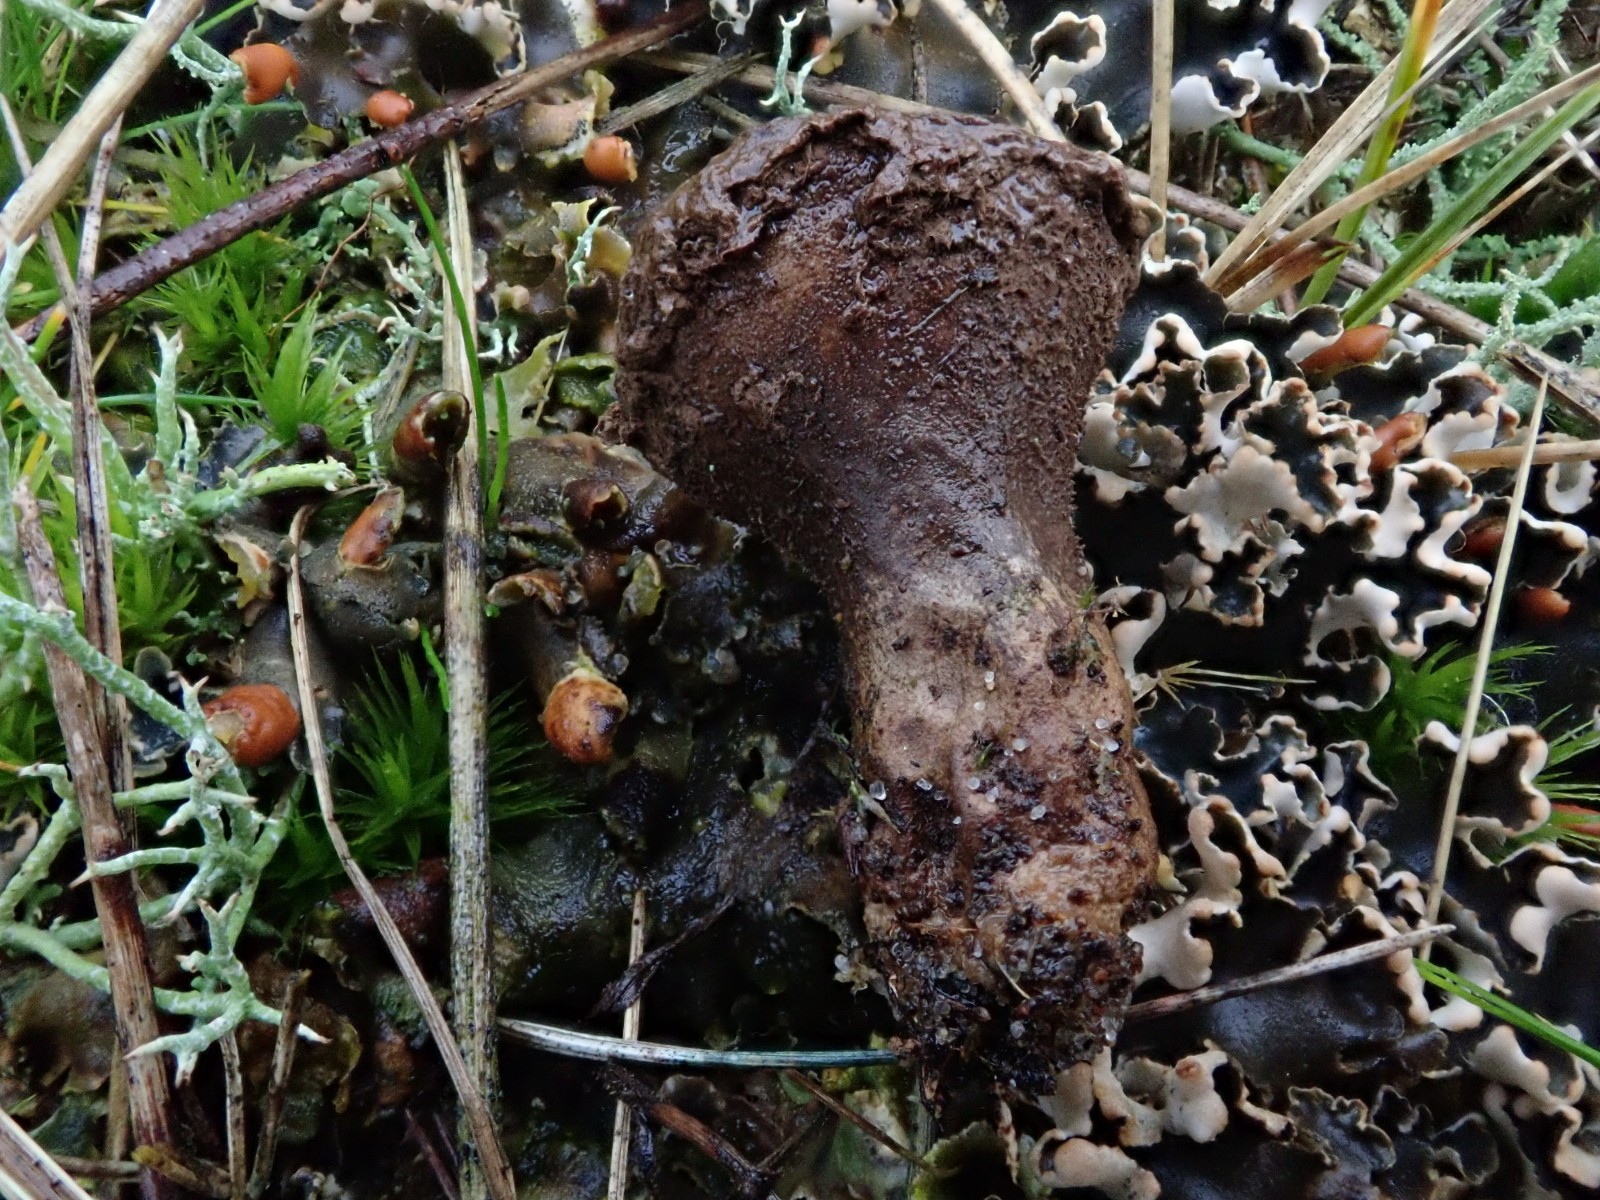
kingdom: Fungi
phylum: Basidiomycota
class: Agaricomycetes
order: Agaricales
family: Agaricaceae
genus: Lycoperdon
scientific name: Lycoperdon
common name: støvbold
